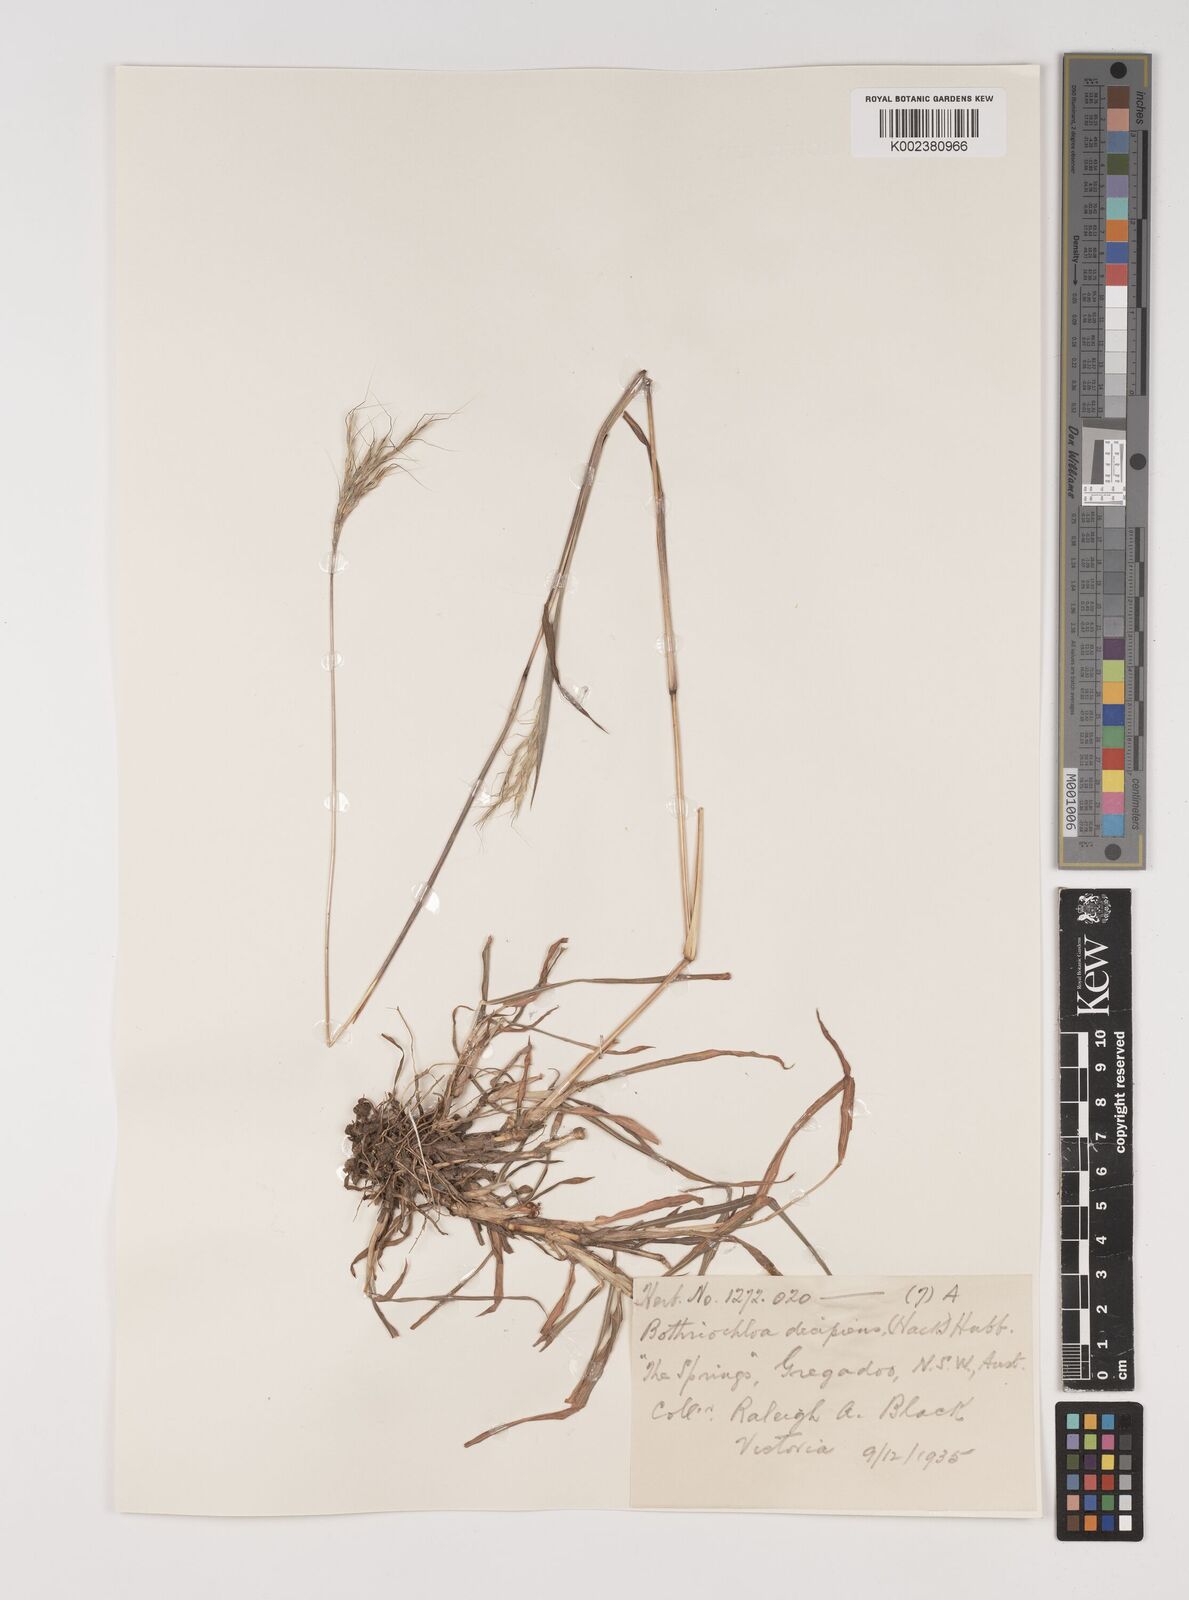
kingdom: Plantae
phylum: Tracheophyta
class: Liliopsida
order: Poales
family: Poaceae
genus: Bothriochloa
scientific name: Bothriochloa decipiens
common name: Pitted-bluegrass
